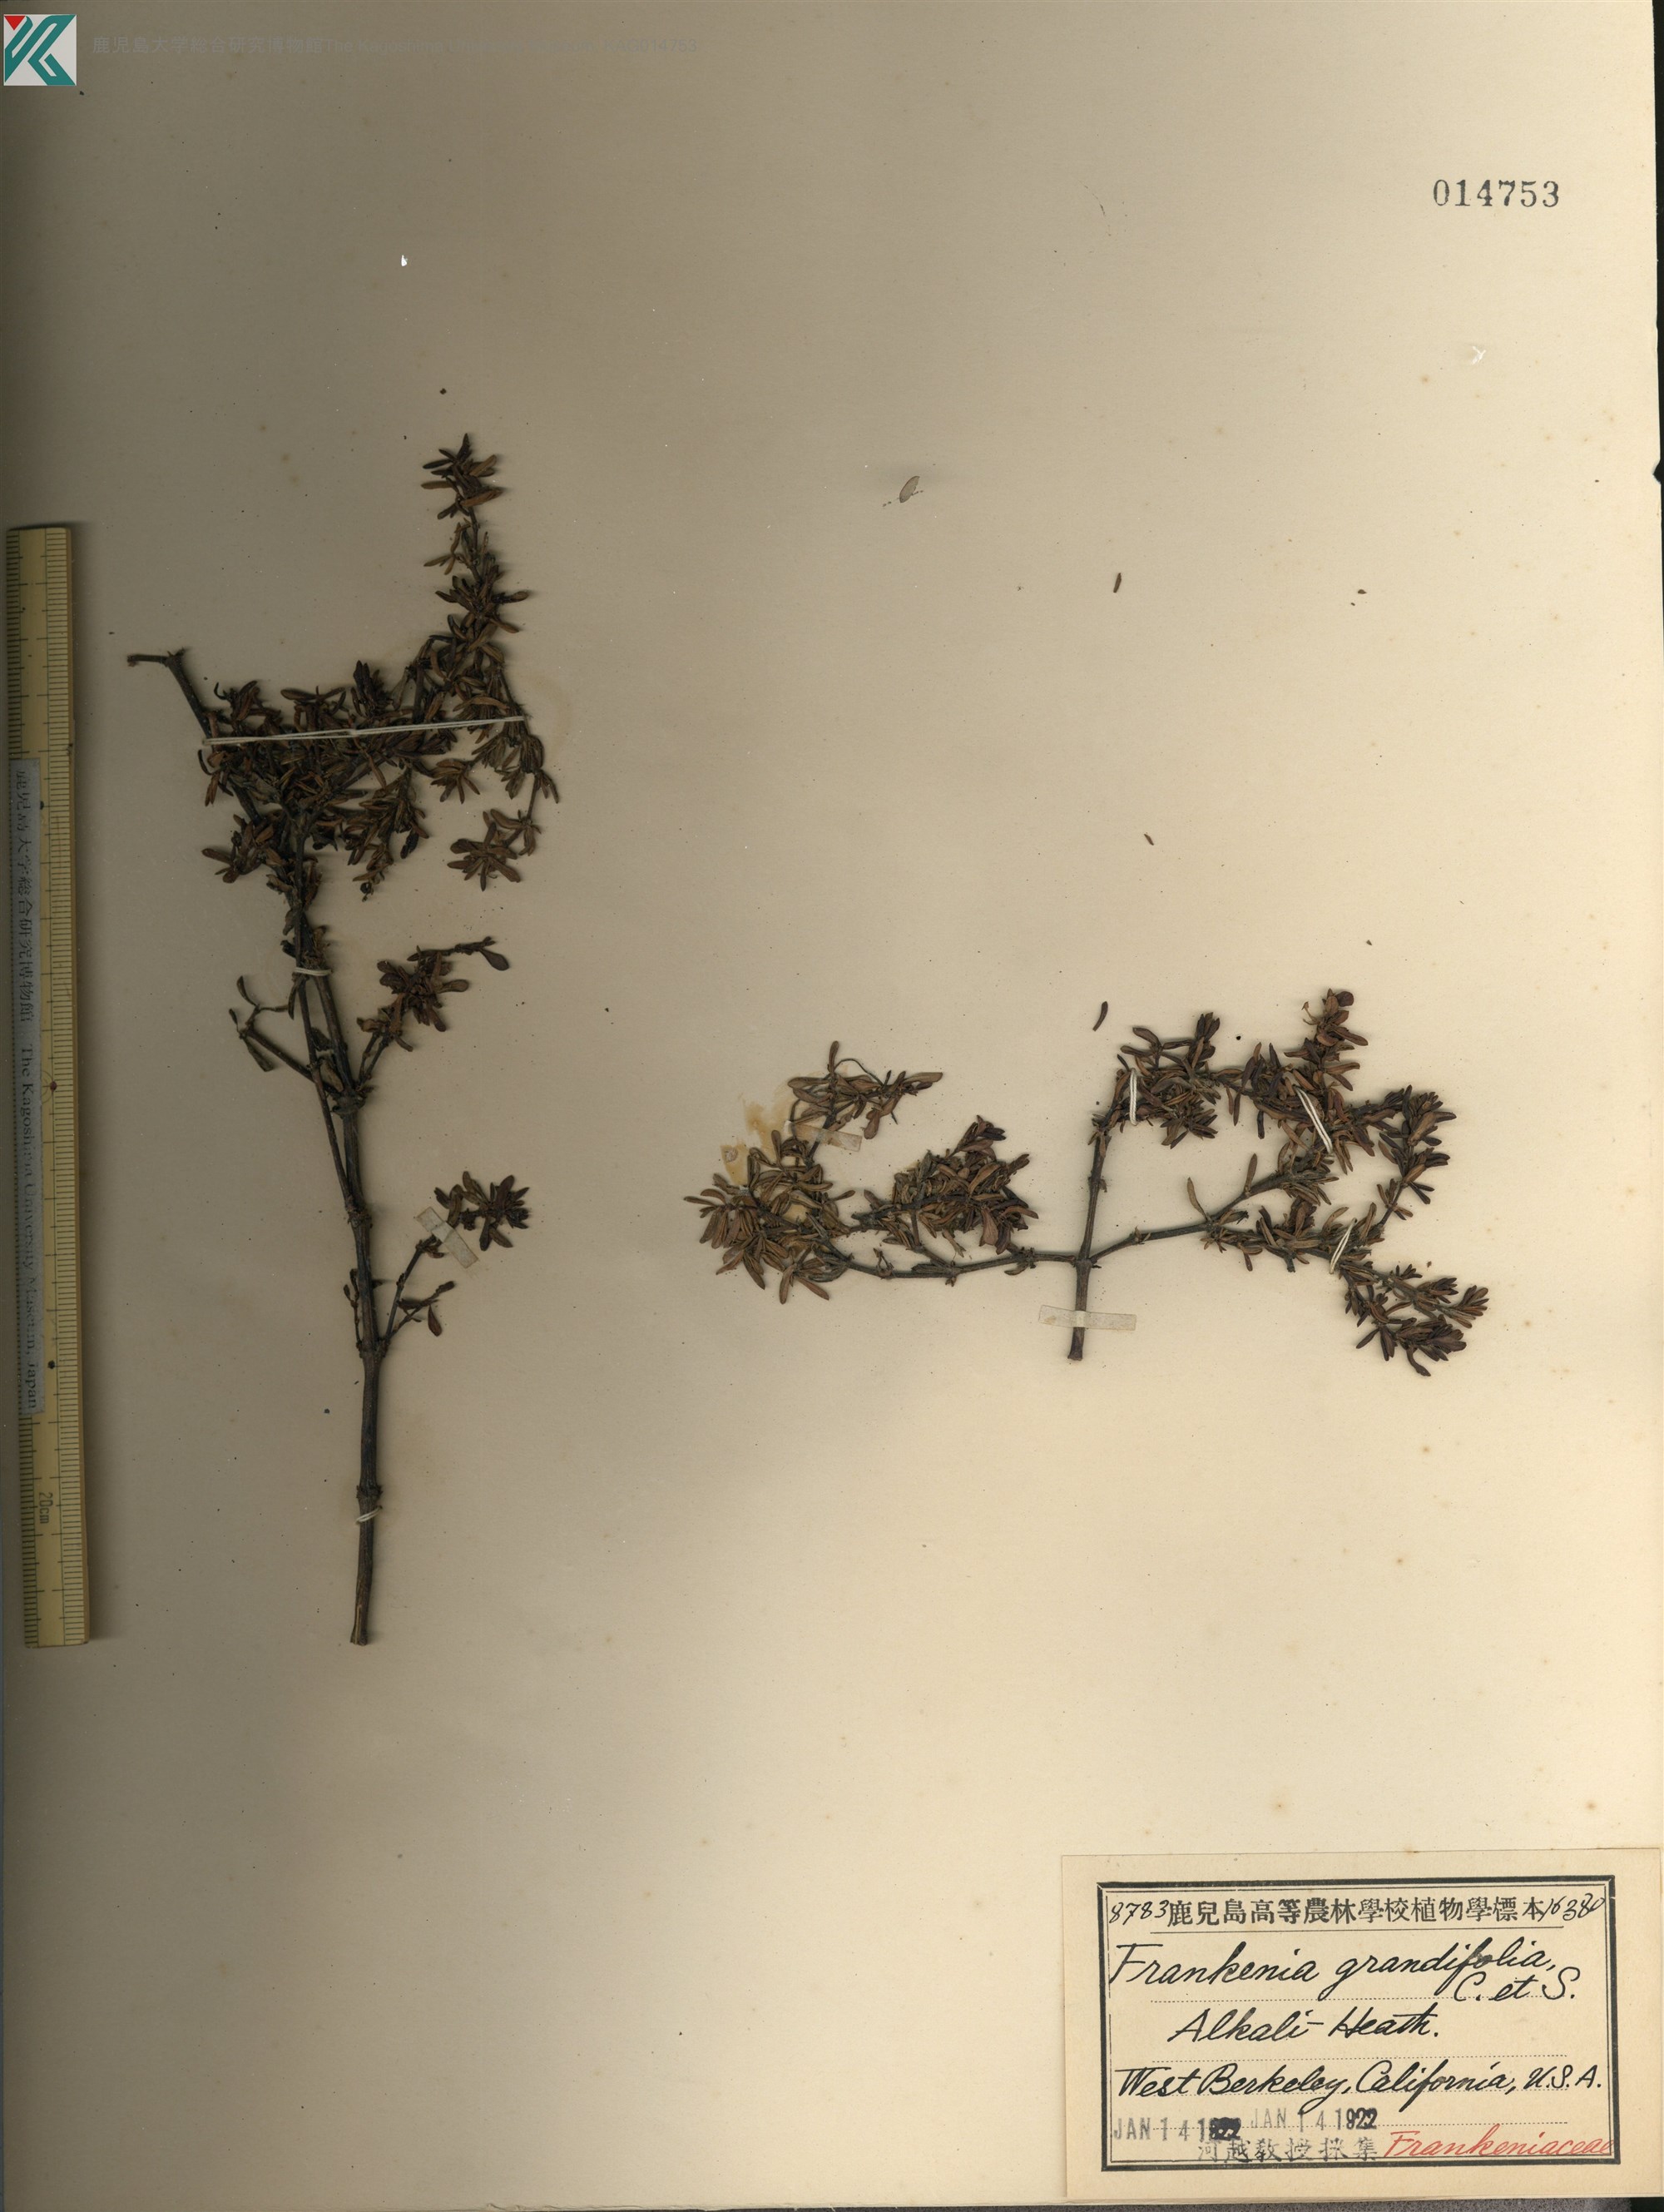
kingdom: Plantae
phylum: Tracheophyta
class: Magnoliopsida
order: Caryophyllales
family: Frankeniaceae
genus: Frankenia
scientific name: Frankenia salina
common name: Alkali seaheath
